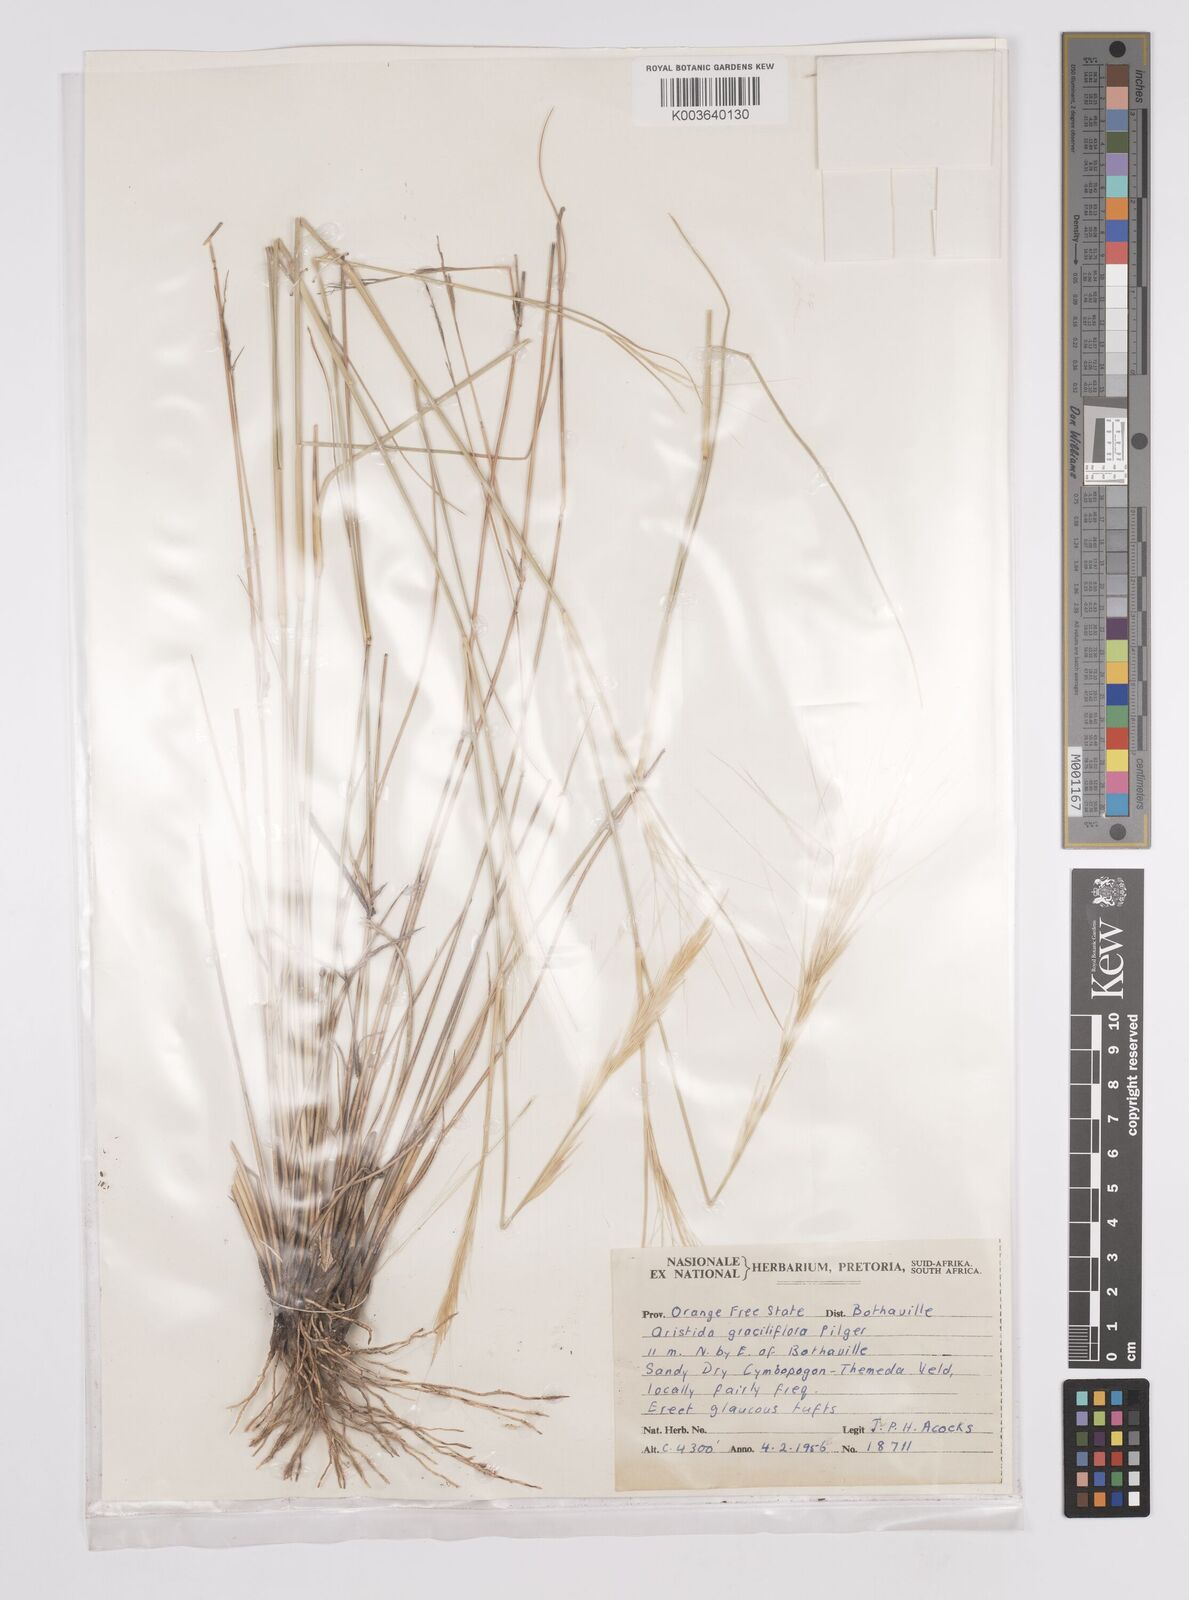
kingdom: Plantae
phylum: Tracheophyta
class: Liliopsida
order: Poales
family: Poaceae
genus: Aristida
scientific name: Aristida stipitata
